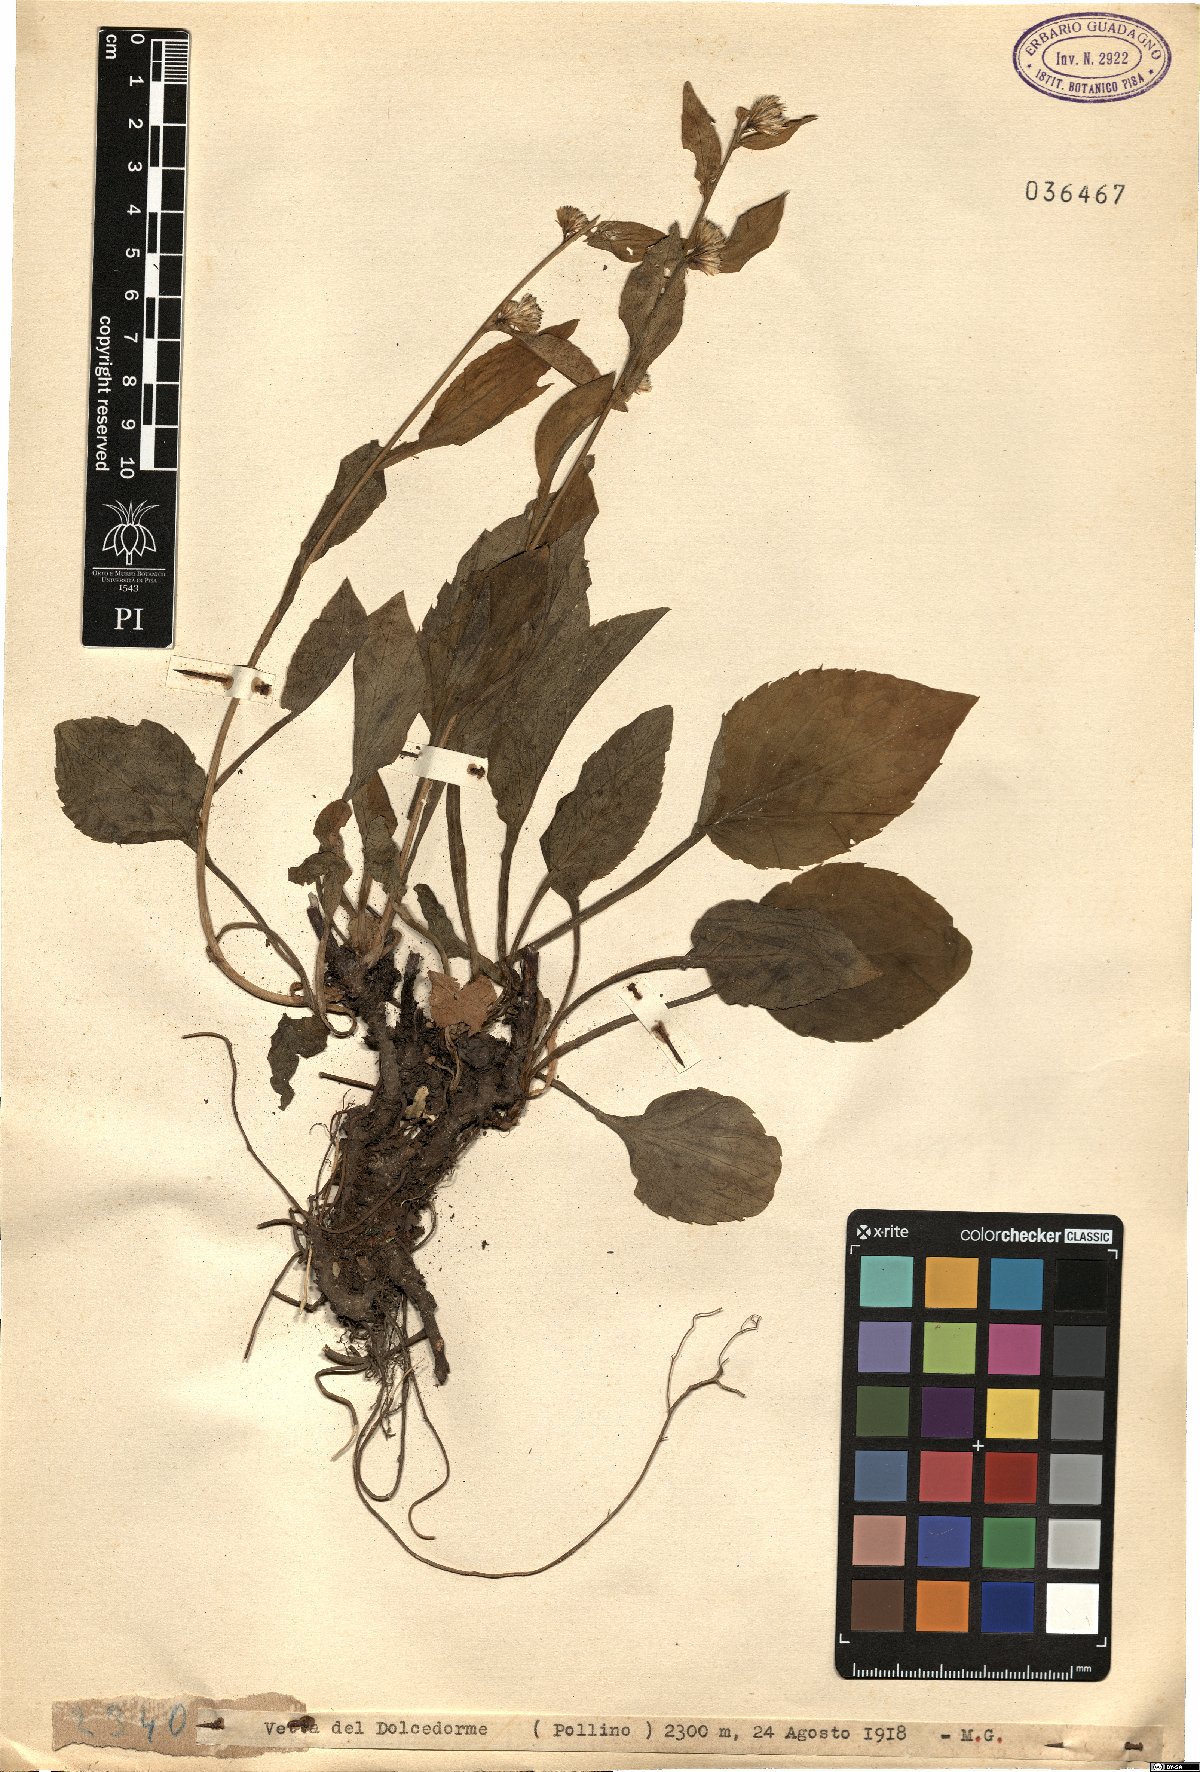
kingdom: Plantae
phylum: Tracheophyta
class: Magnoliopsida
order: Asterales
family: Asteraceae
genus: Solidago
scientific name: Solidago
